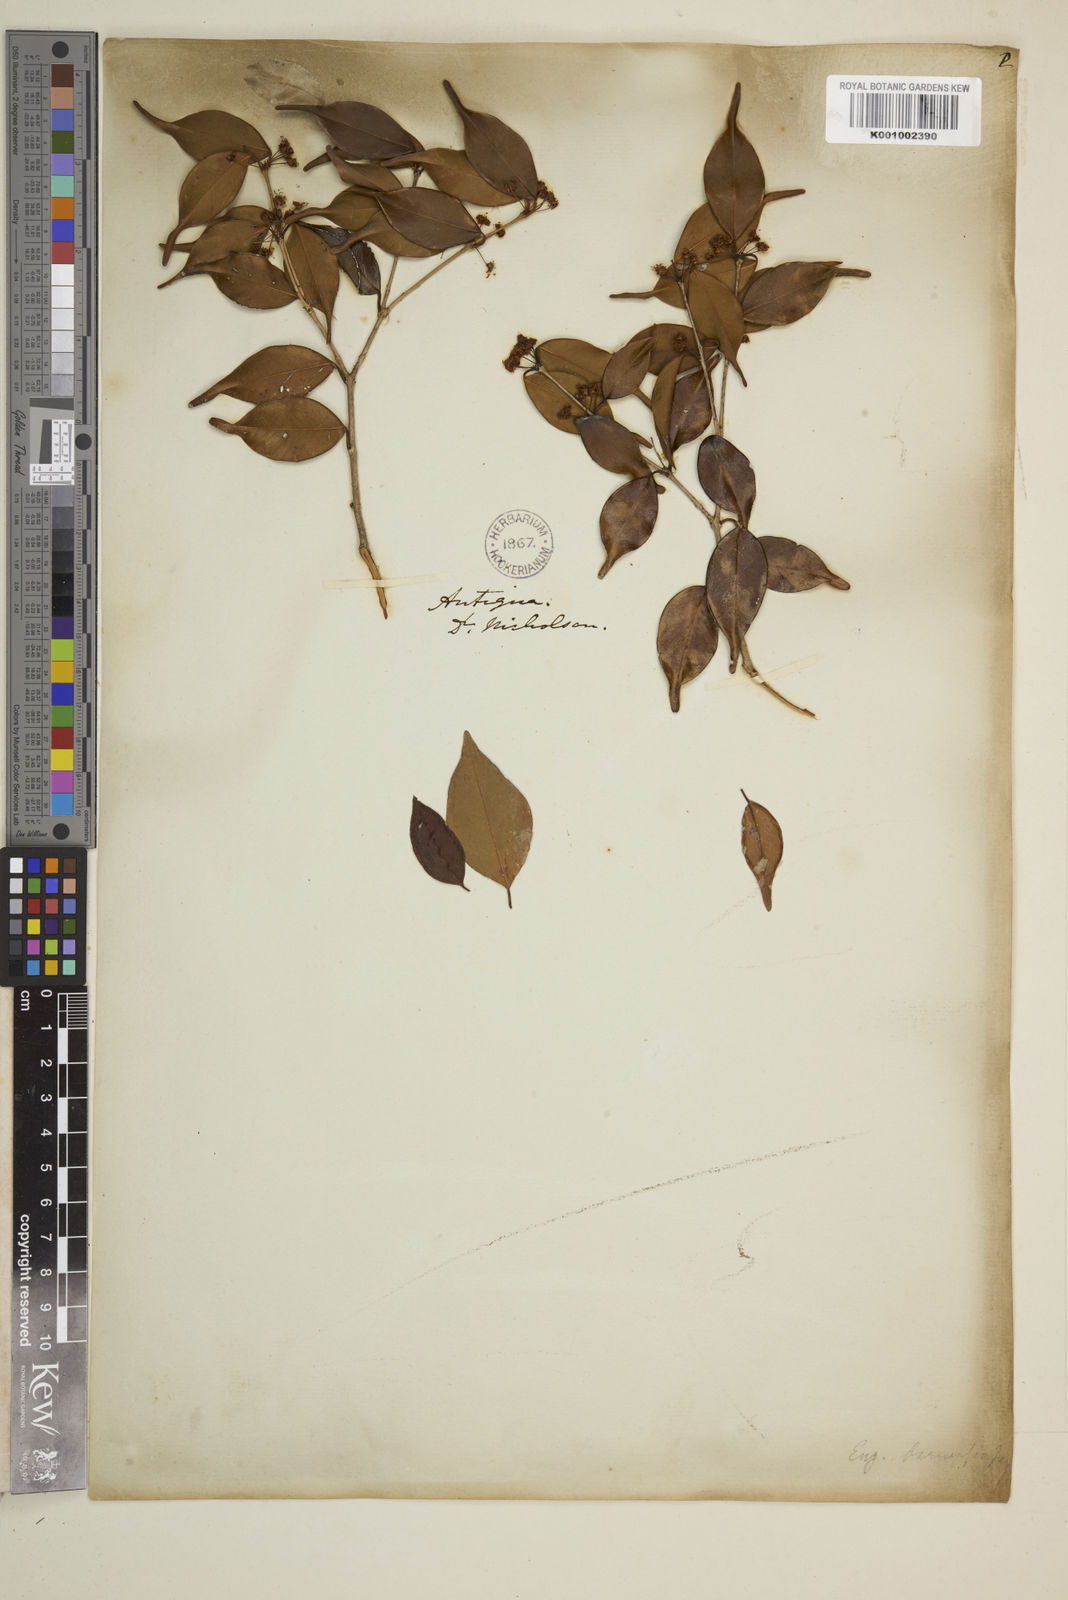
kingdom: Plantae
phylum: Tracheophyta
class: Magnoliopsida
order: Myrtales
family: Myrtaceae
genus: Eugenia
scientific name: Eugenia acapulcensis
